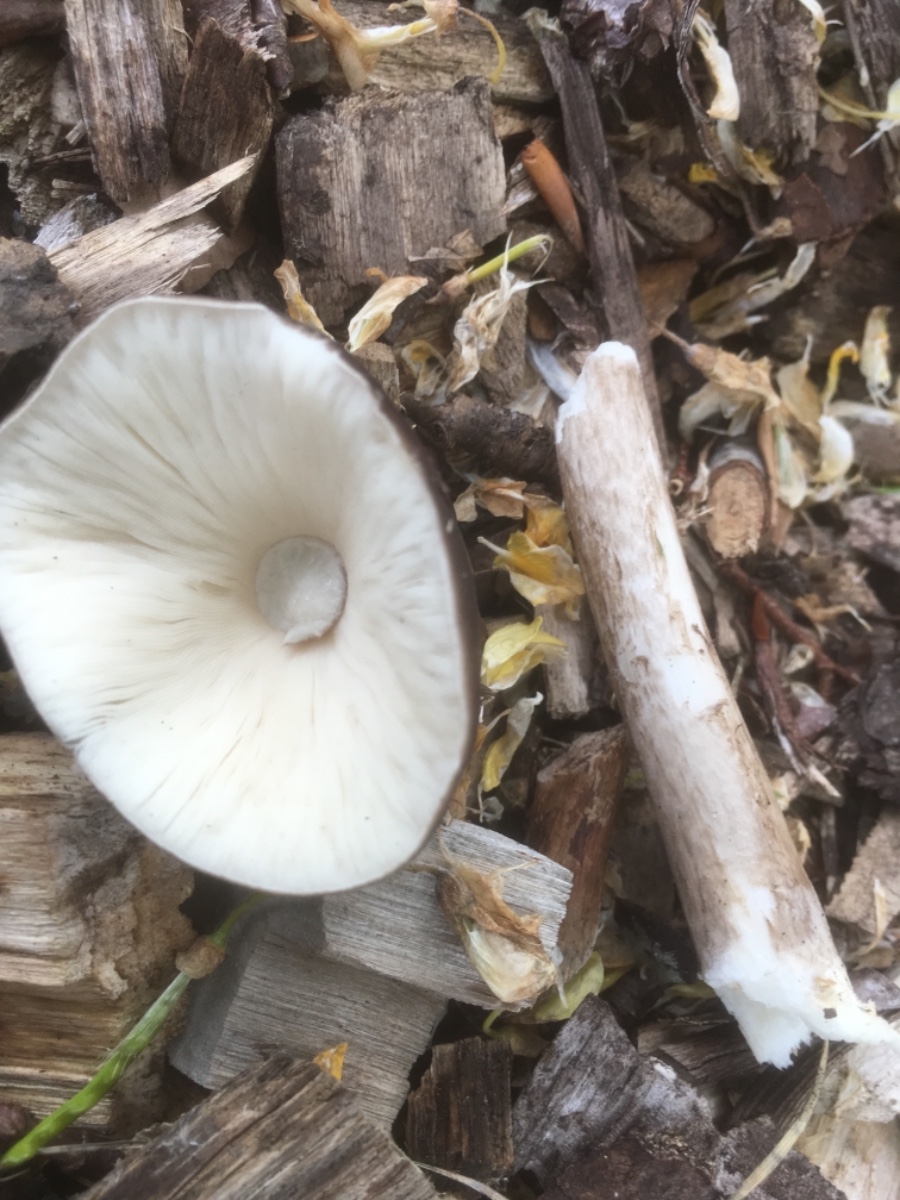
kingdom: Fungi
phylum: Basidiomycota
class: Agaricomycetes
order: Agaricales
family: Pluteaceae
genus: Pluteus
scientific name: Pluteus cervinus
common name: sodfarvet skærmhat
